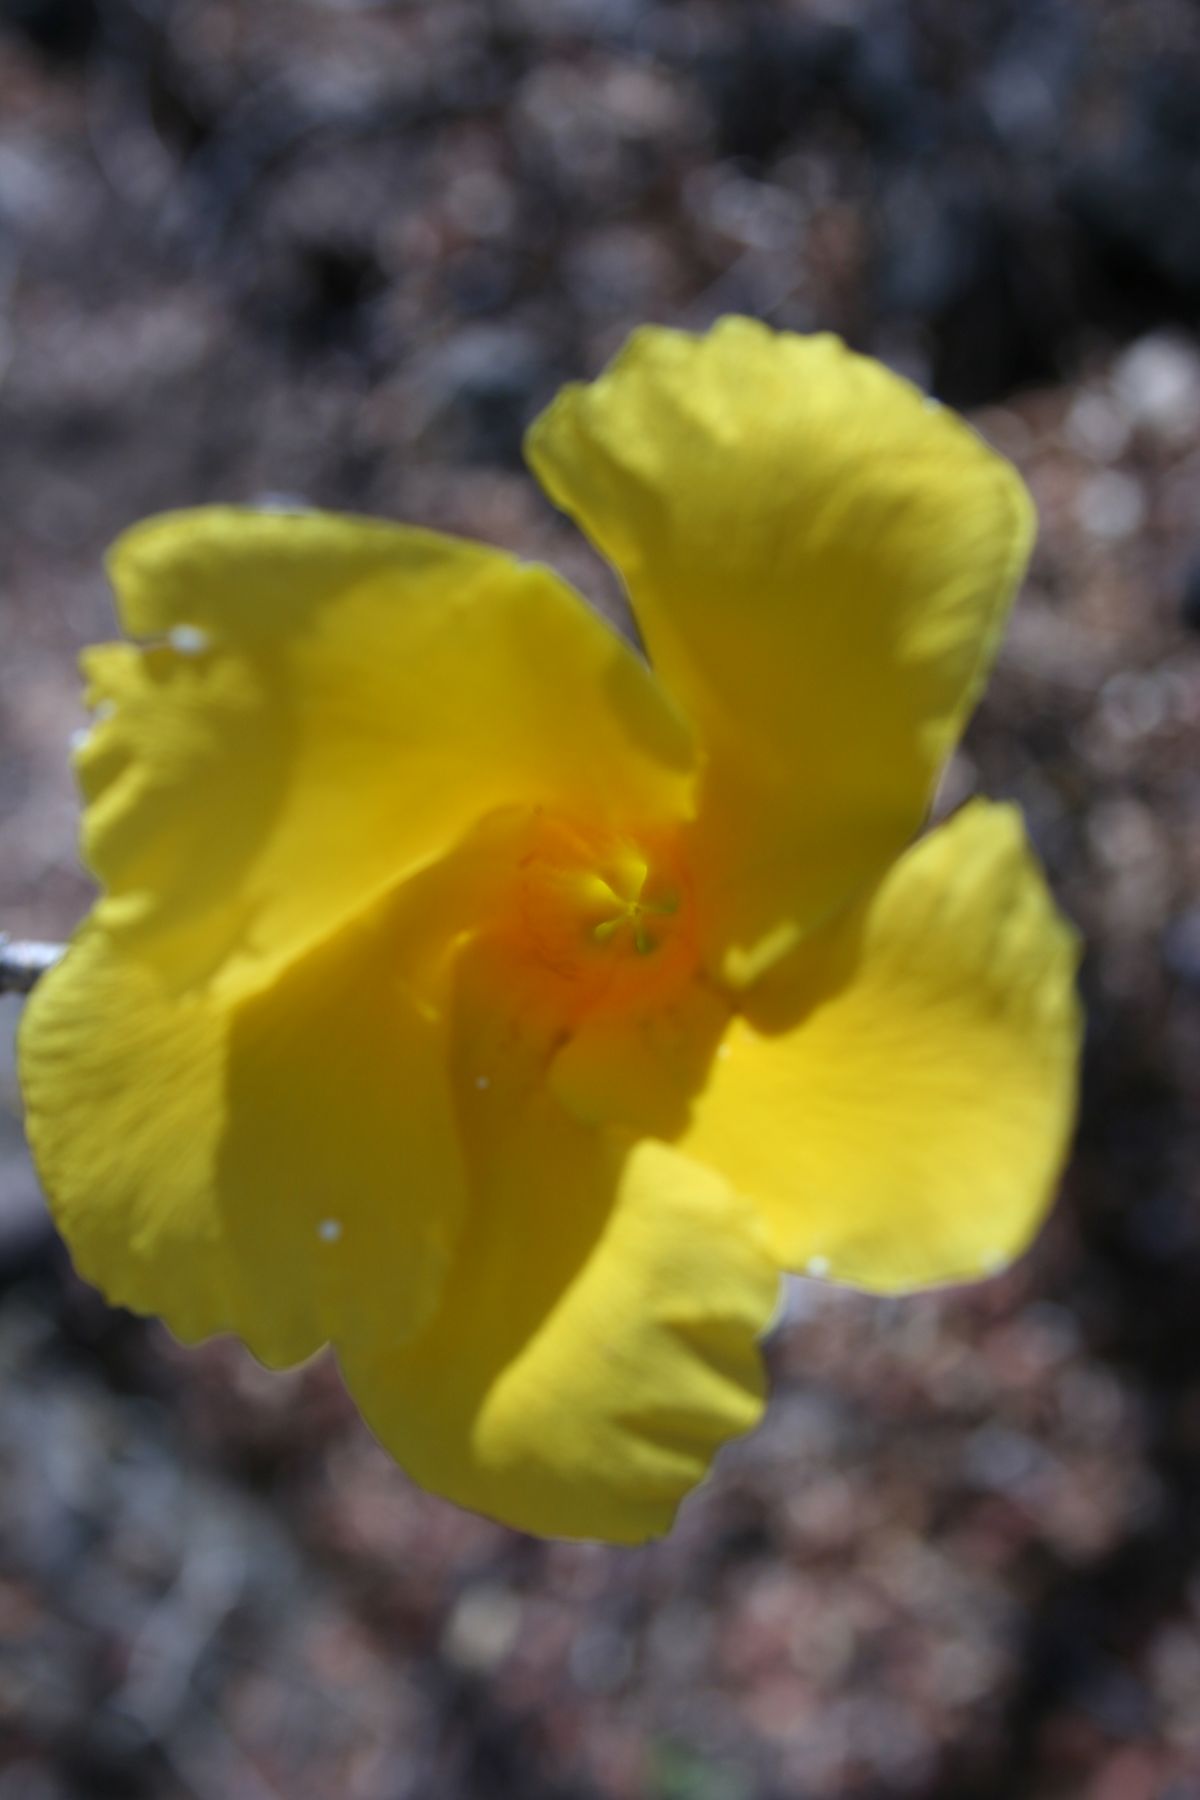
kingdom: Plantae
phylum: Tracheophyta
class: Magnoliopsida
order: Gentianales
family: Apocynaceae
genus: Tabernaemontana
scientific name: Tabernaemontana glabra
